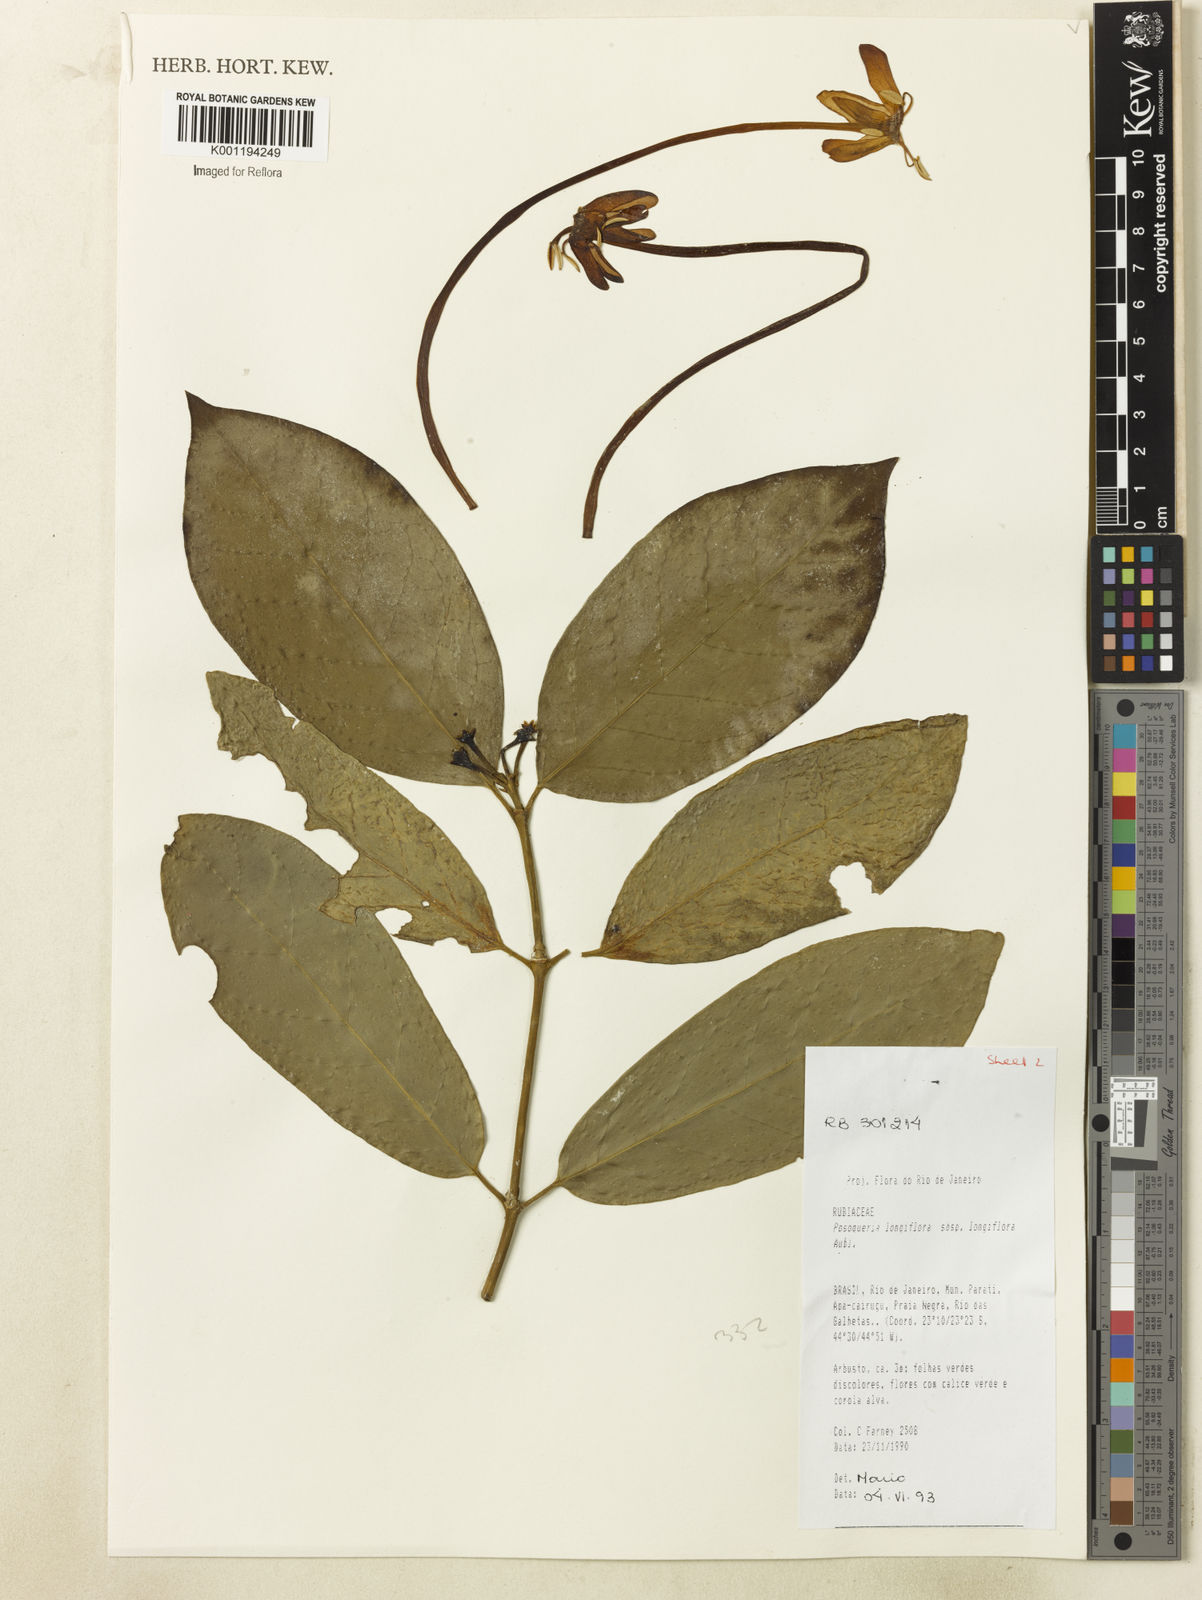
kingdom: Plantae
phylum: Tracheophyta
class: Magnoliopsida
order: Gentianales
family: Rubiaceae
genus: Posoqueria
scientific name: Posoqueria longiflora
